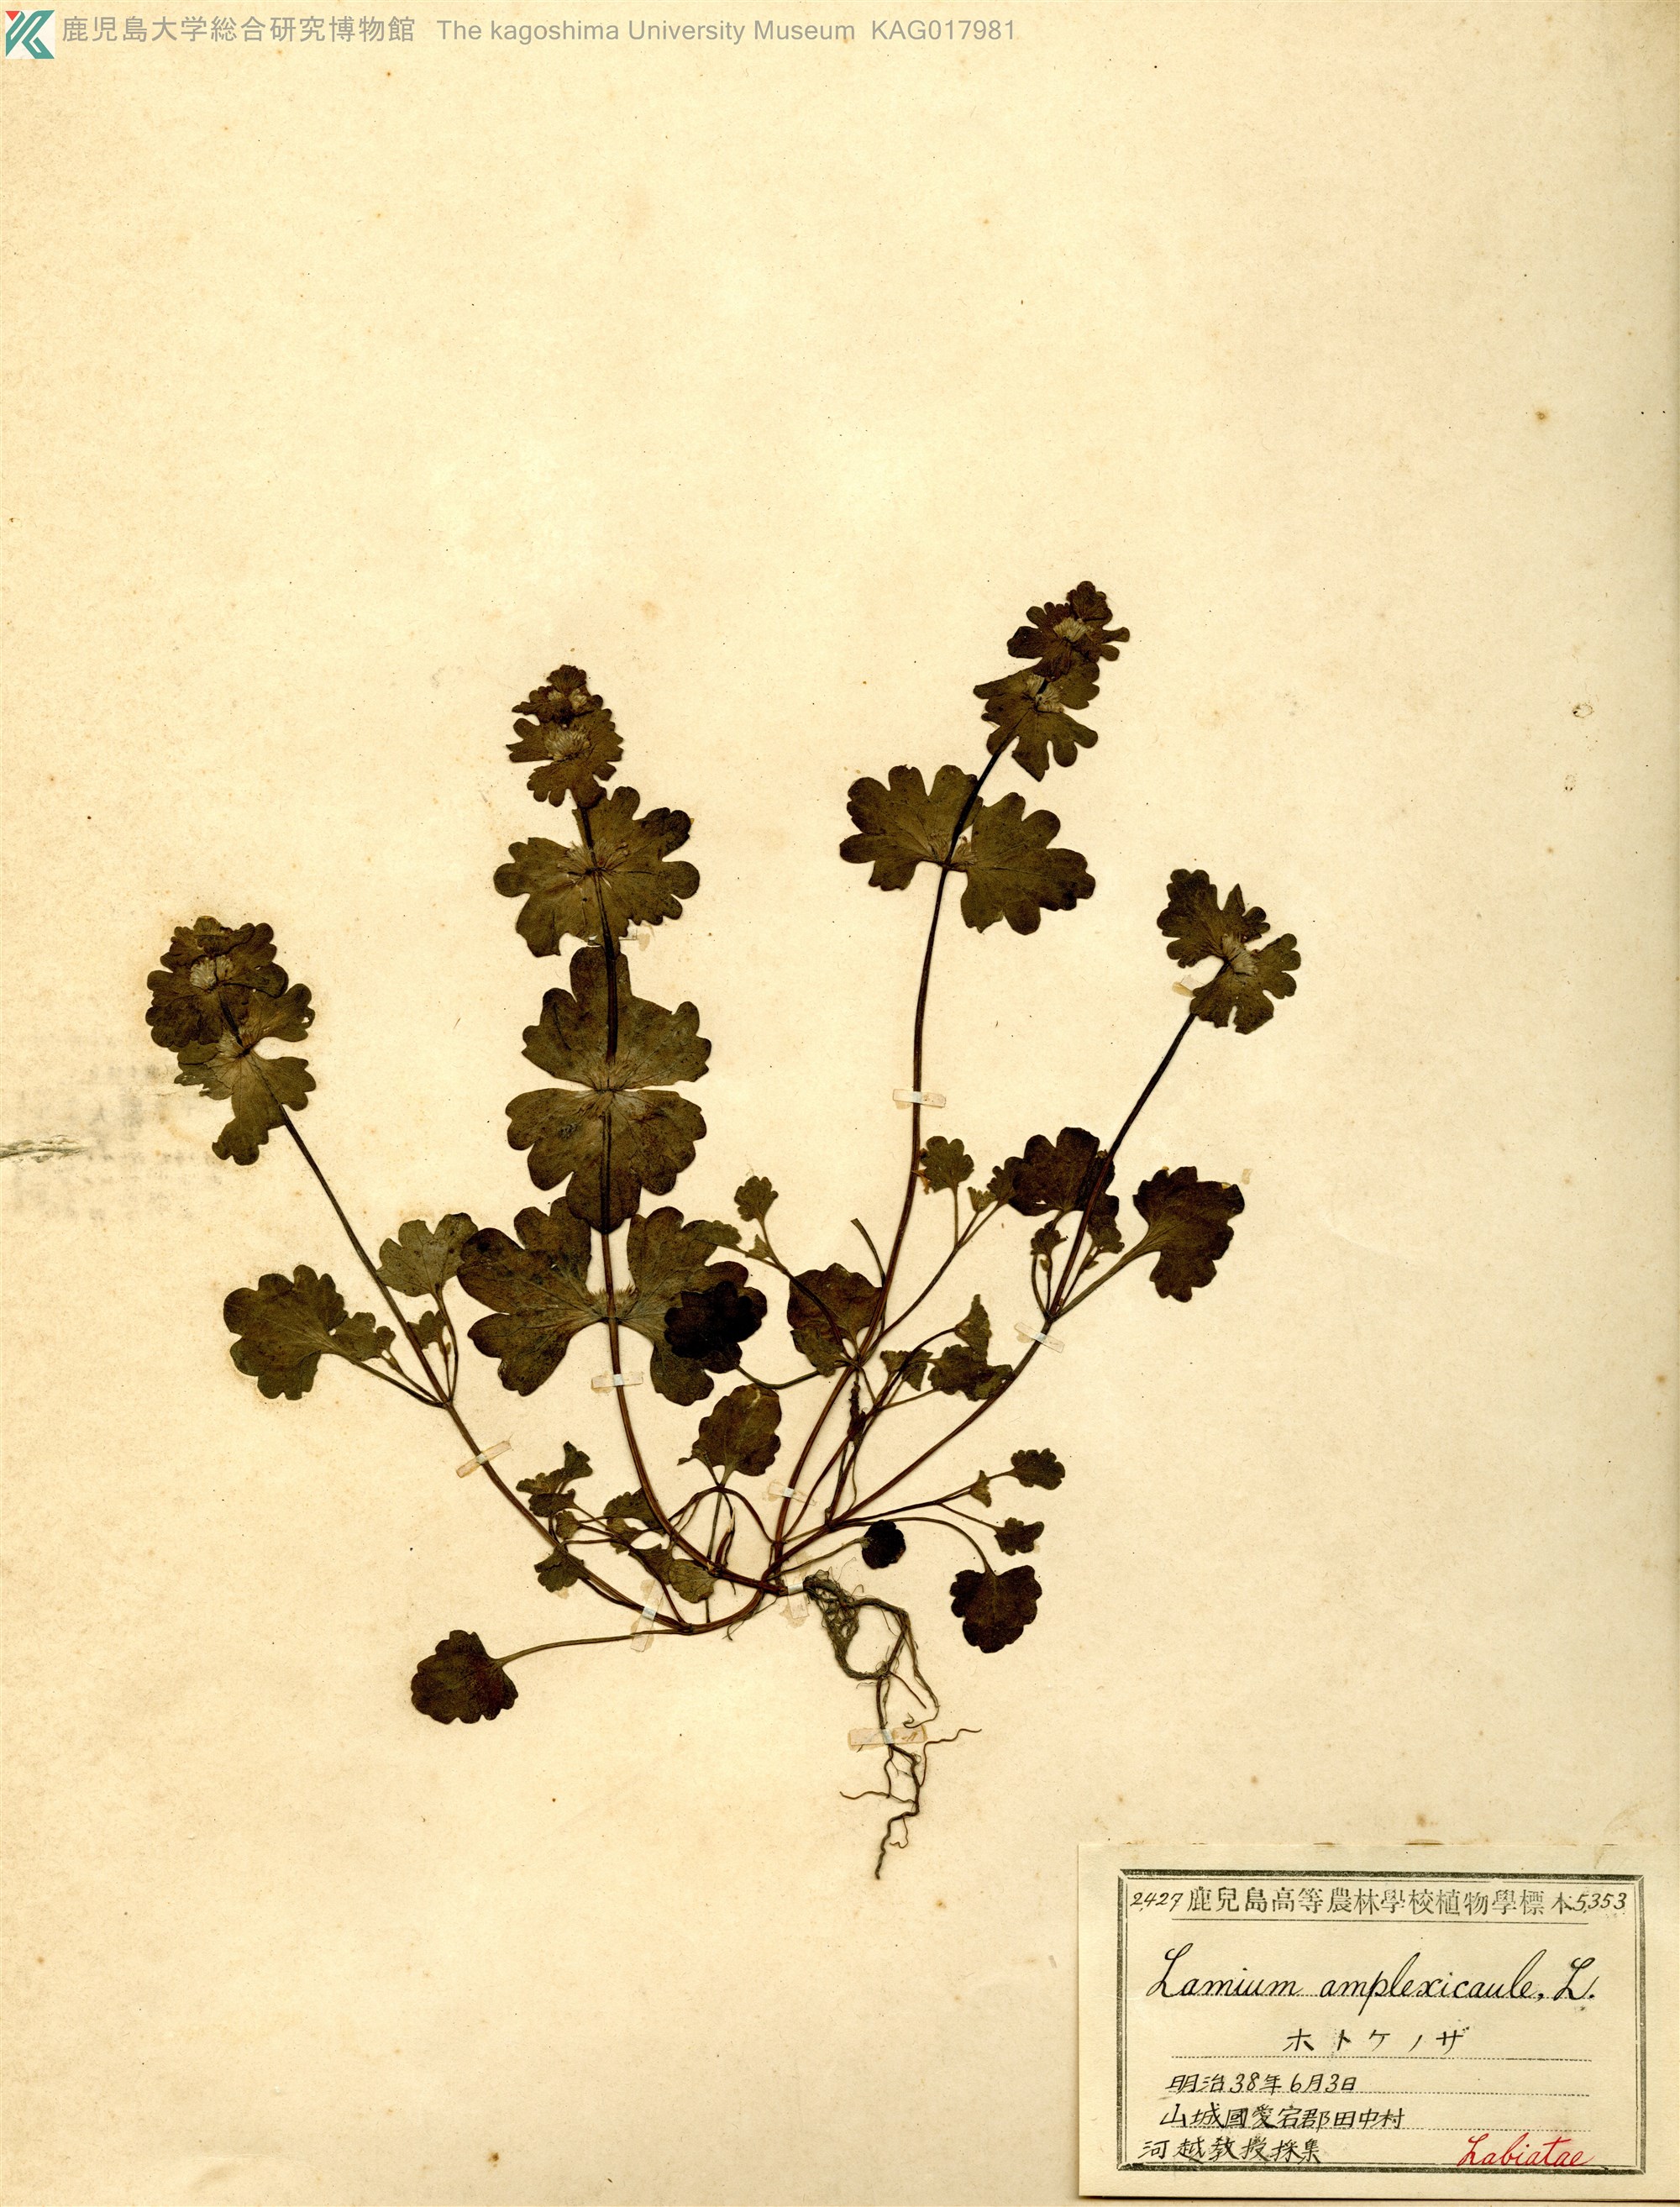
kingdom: Plantae
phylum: Tracheophyta
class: Magnoliopsida
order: Lamiales
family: Lamiaceae
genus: Lamium
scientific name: Lamium amplexicaule
